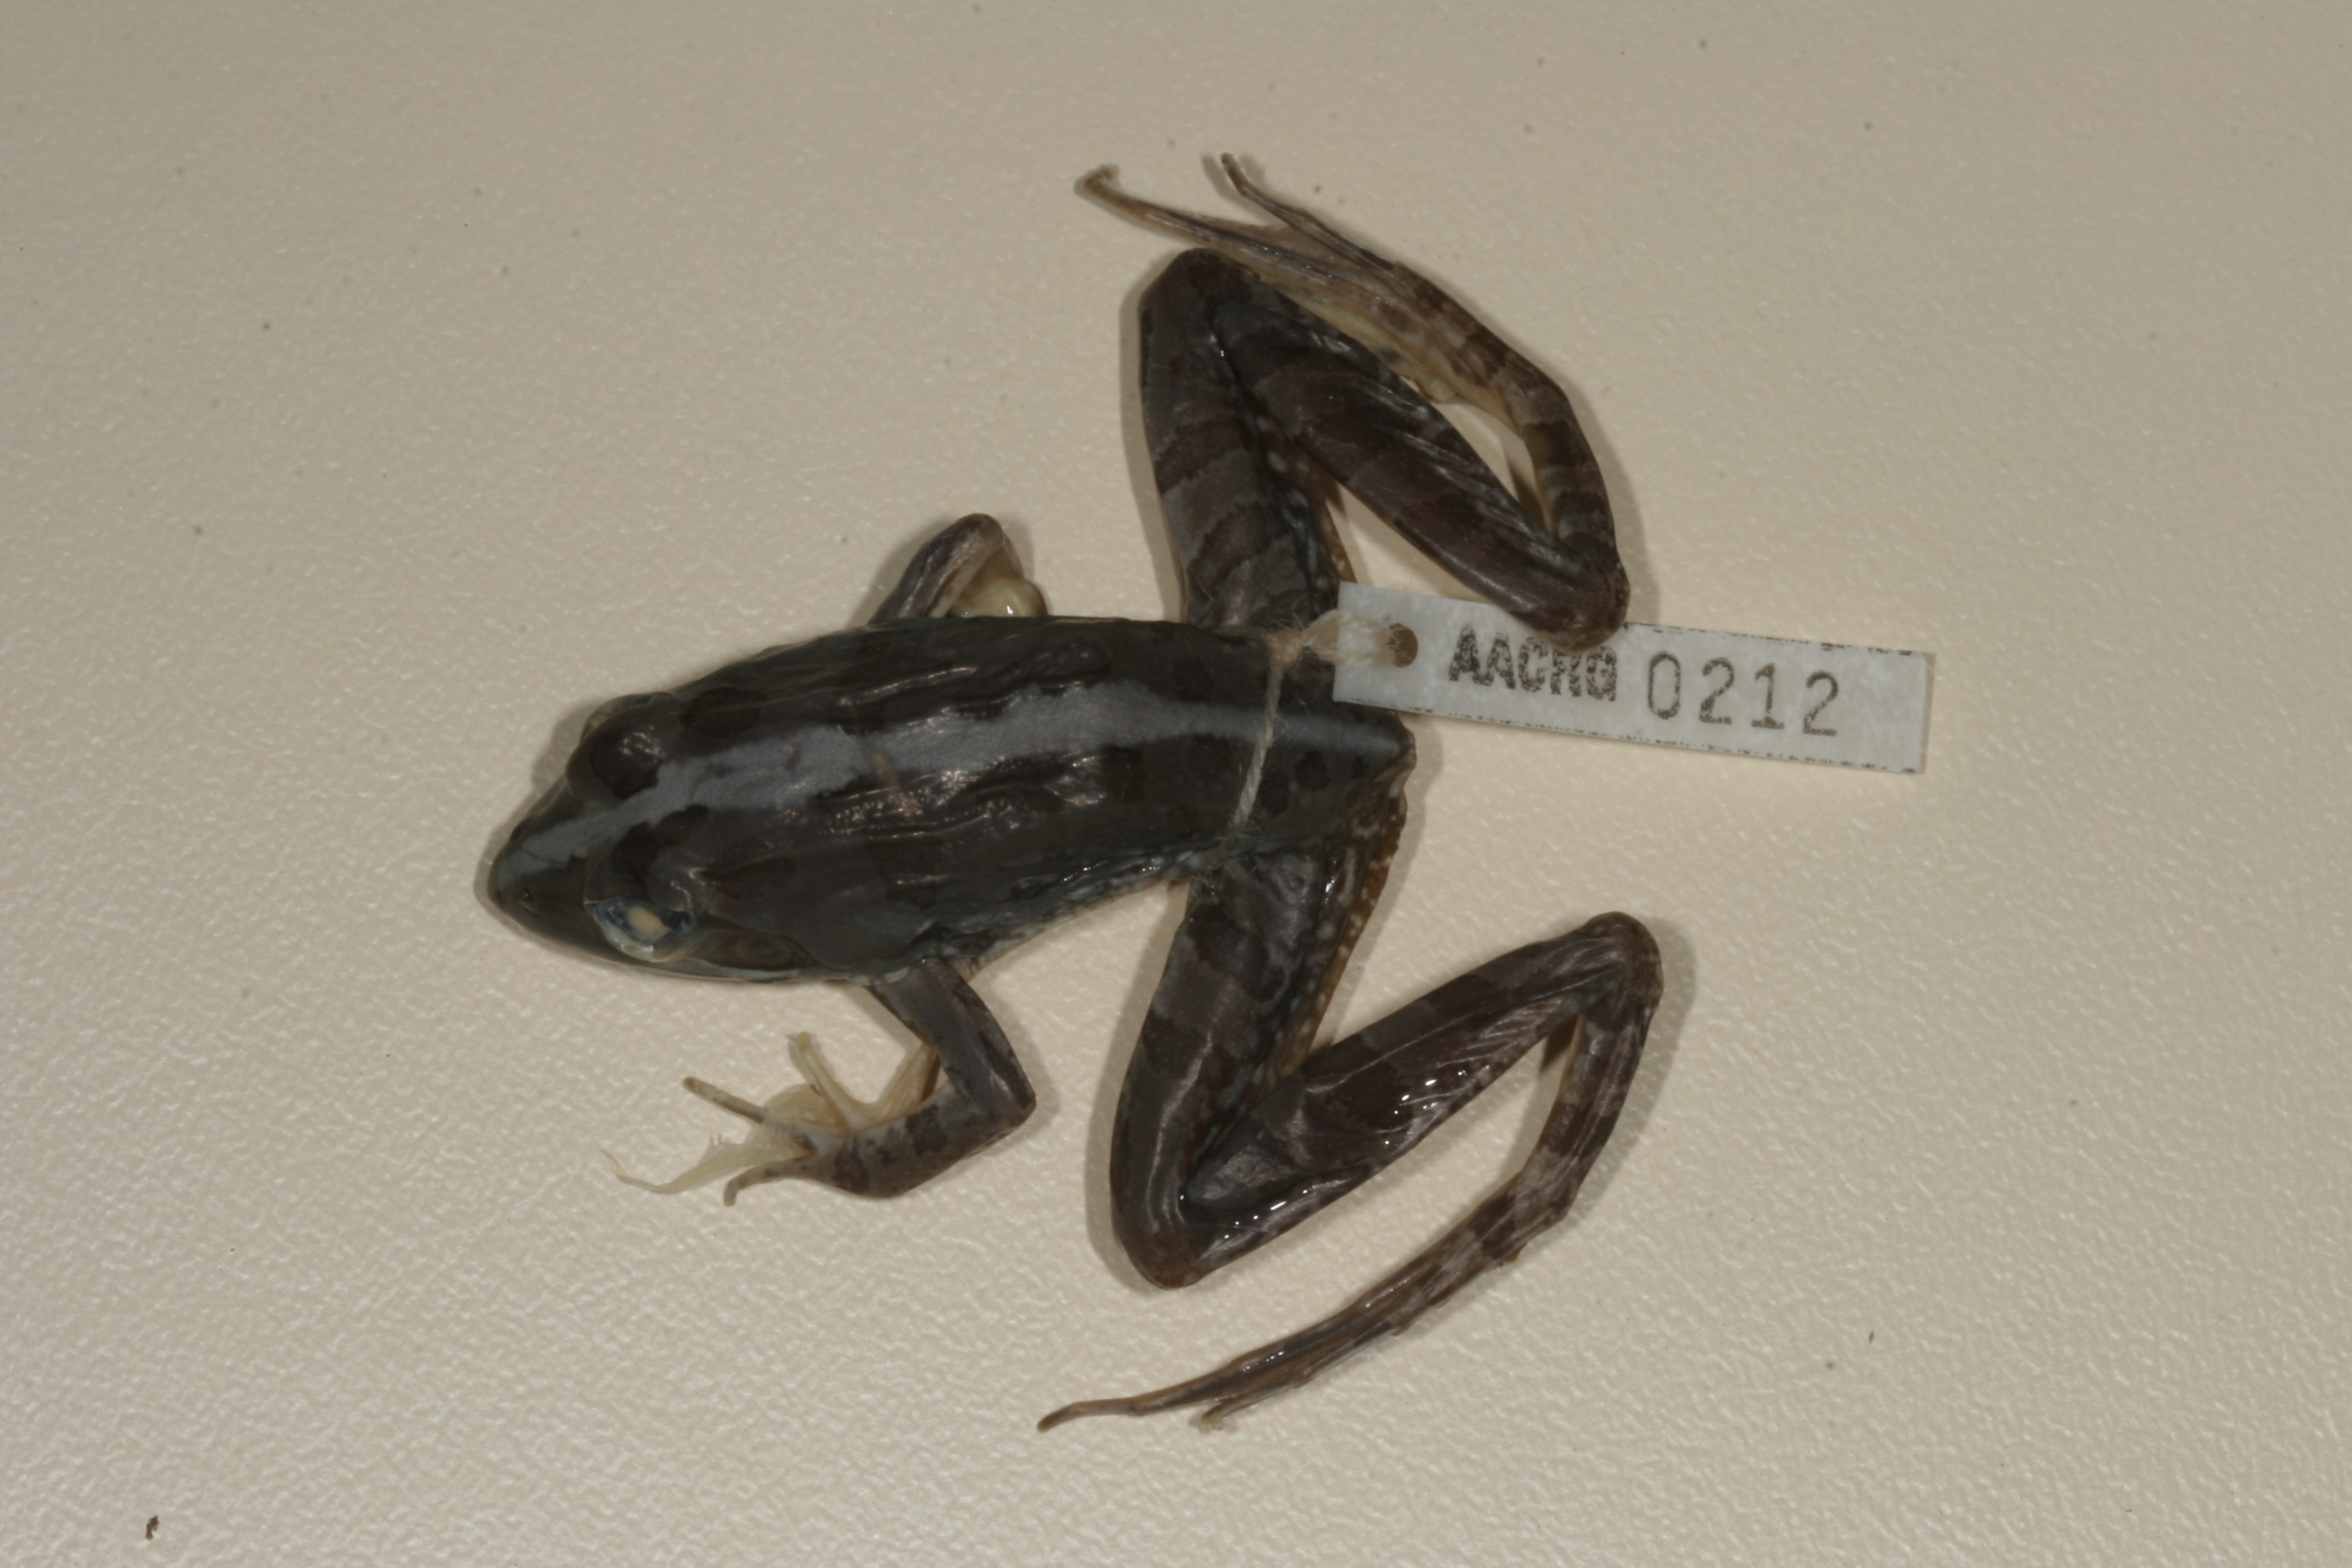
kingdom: Animalia
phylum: Chordata
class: Amphibia
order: Anura
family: Pyxicephalidae
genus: Amietia
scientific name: Amietia angolensis
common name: Dusky-throated frog
